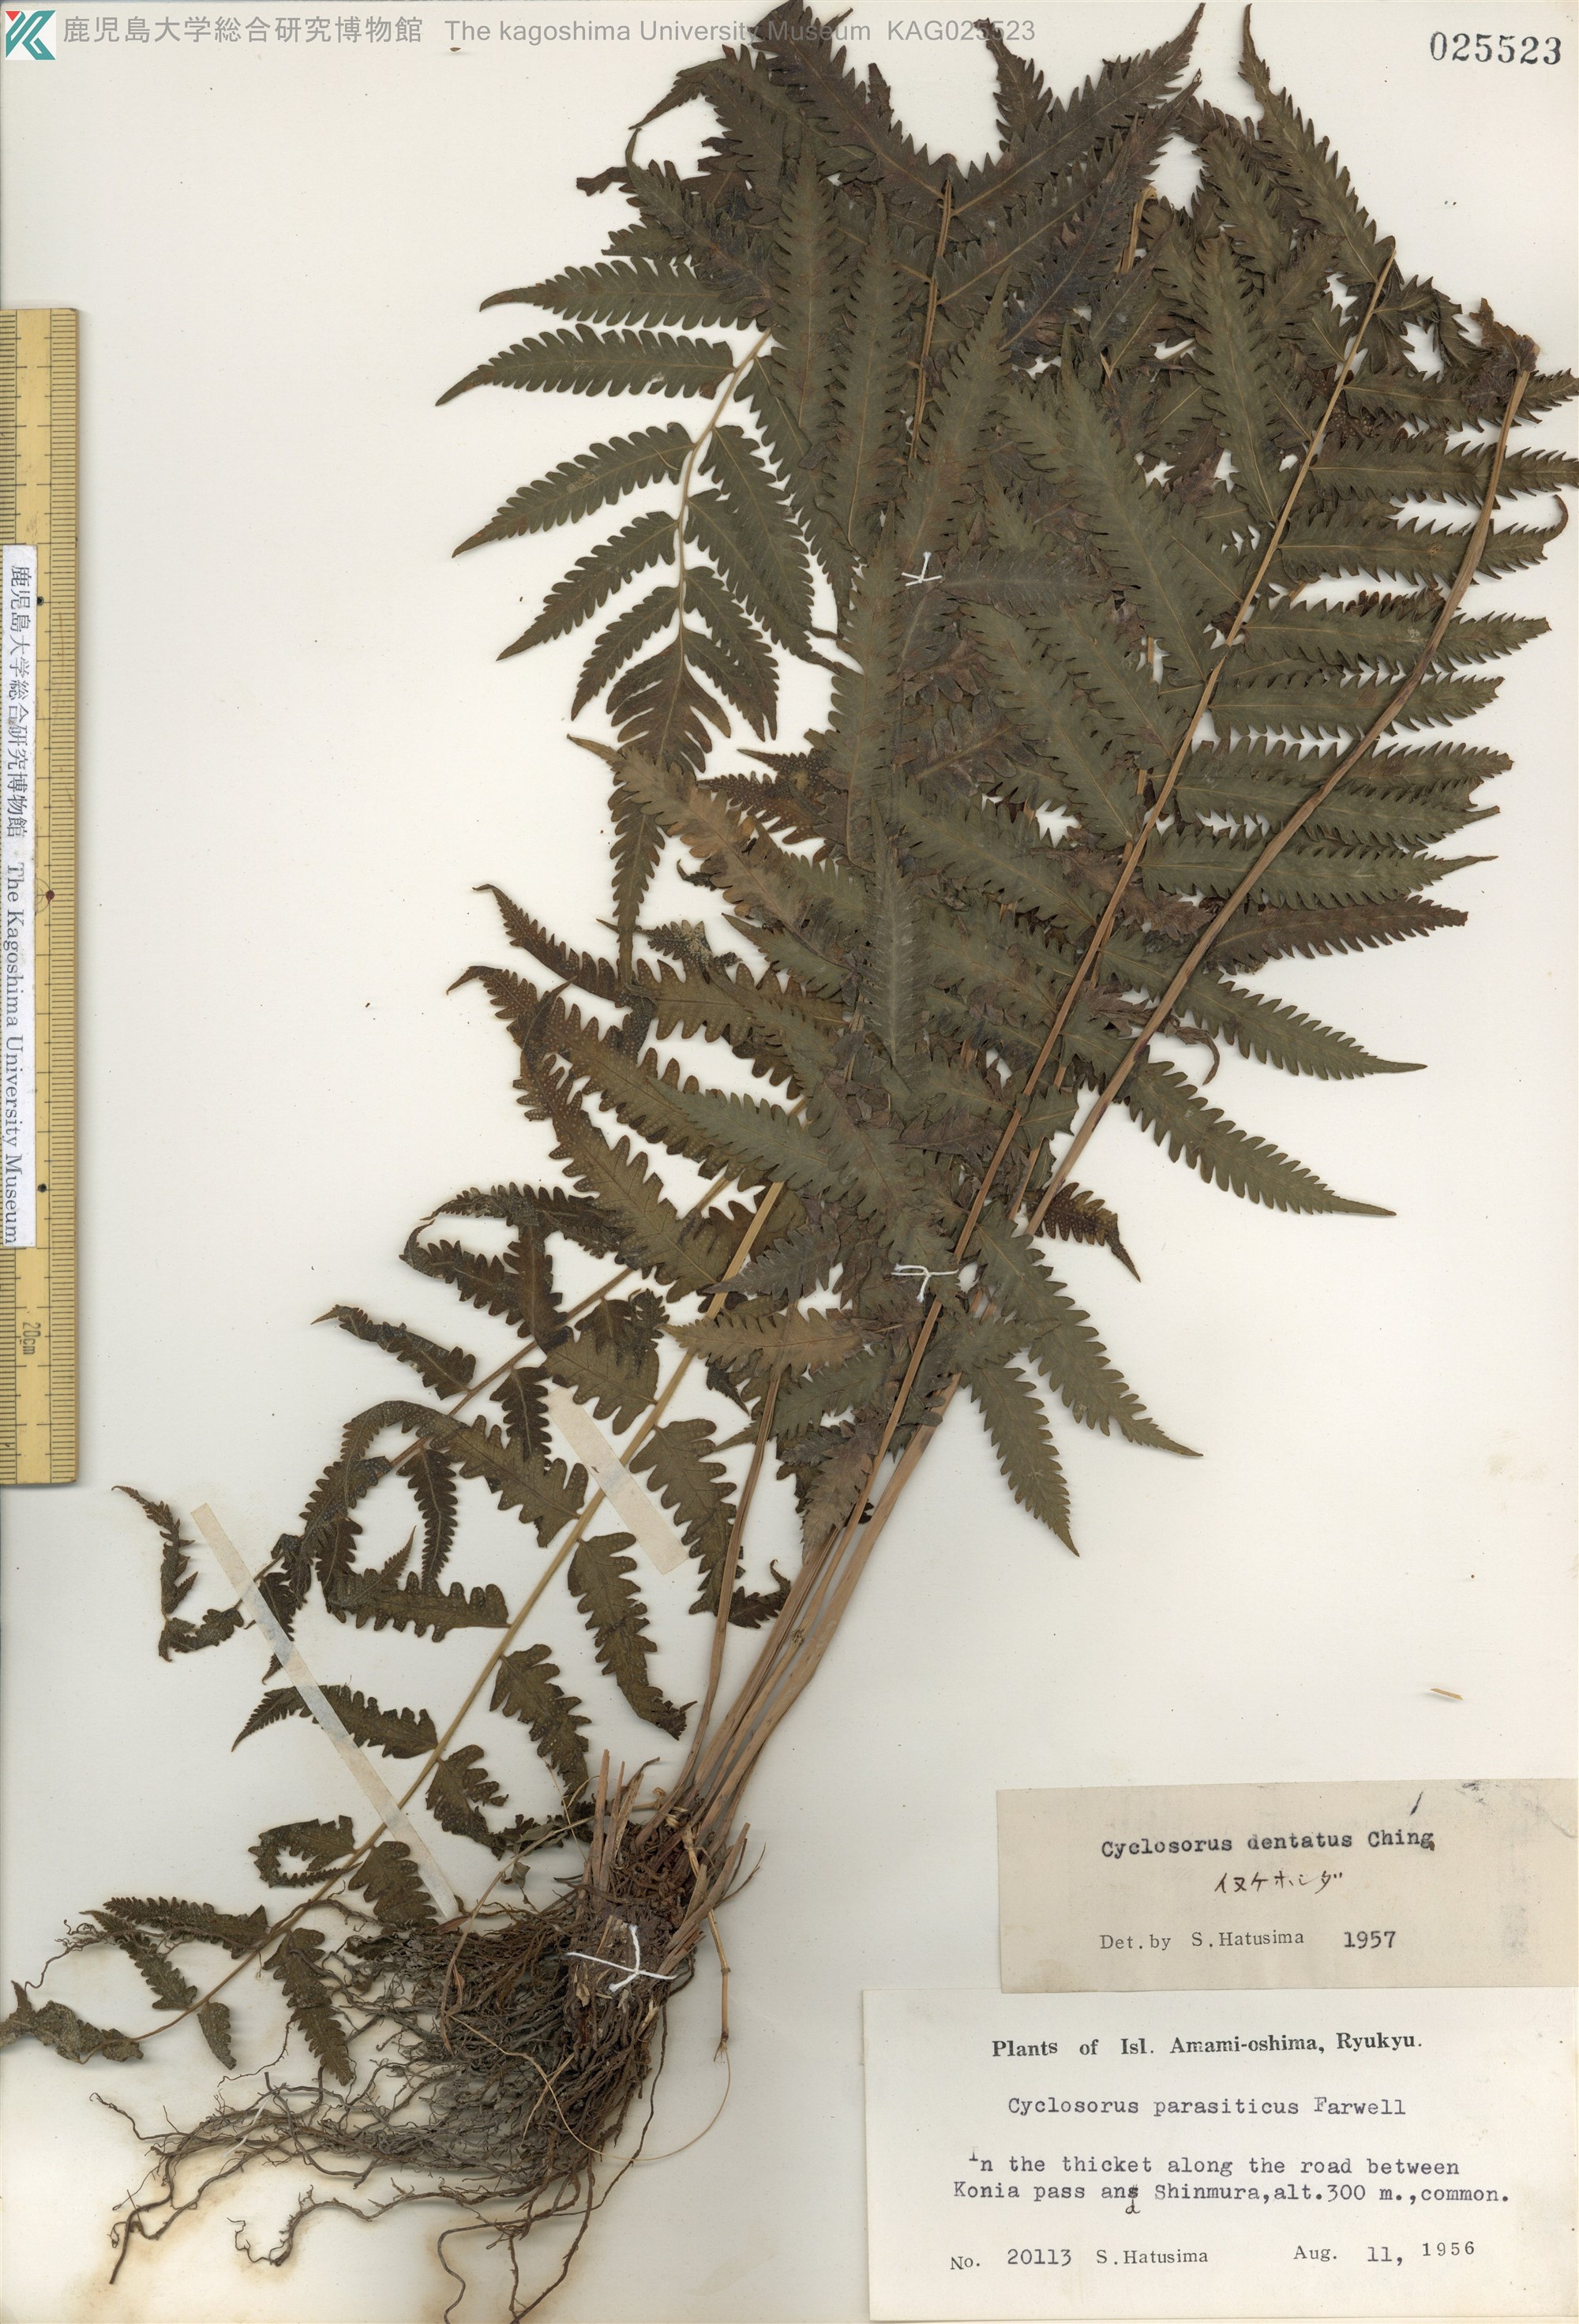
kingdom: Plantae
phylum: Tracheophyta
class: Polypodiopsida
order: Polypodiales
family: Thelypteridaceae
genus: Christella
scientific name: Christella dentata
